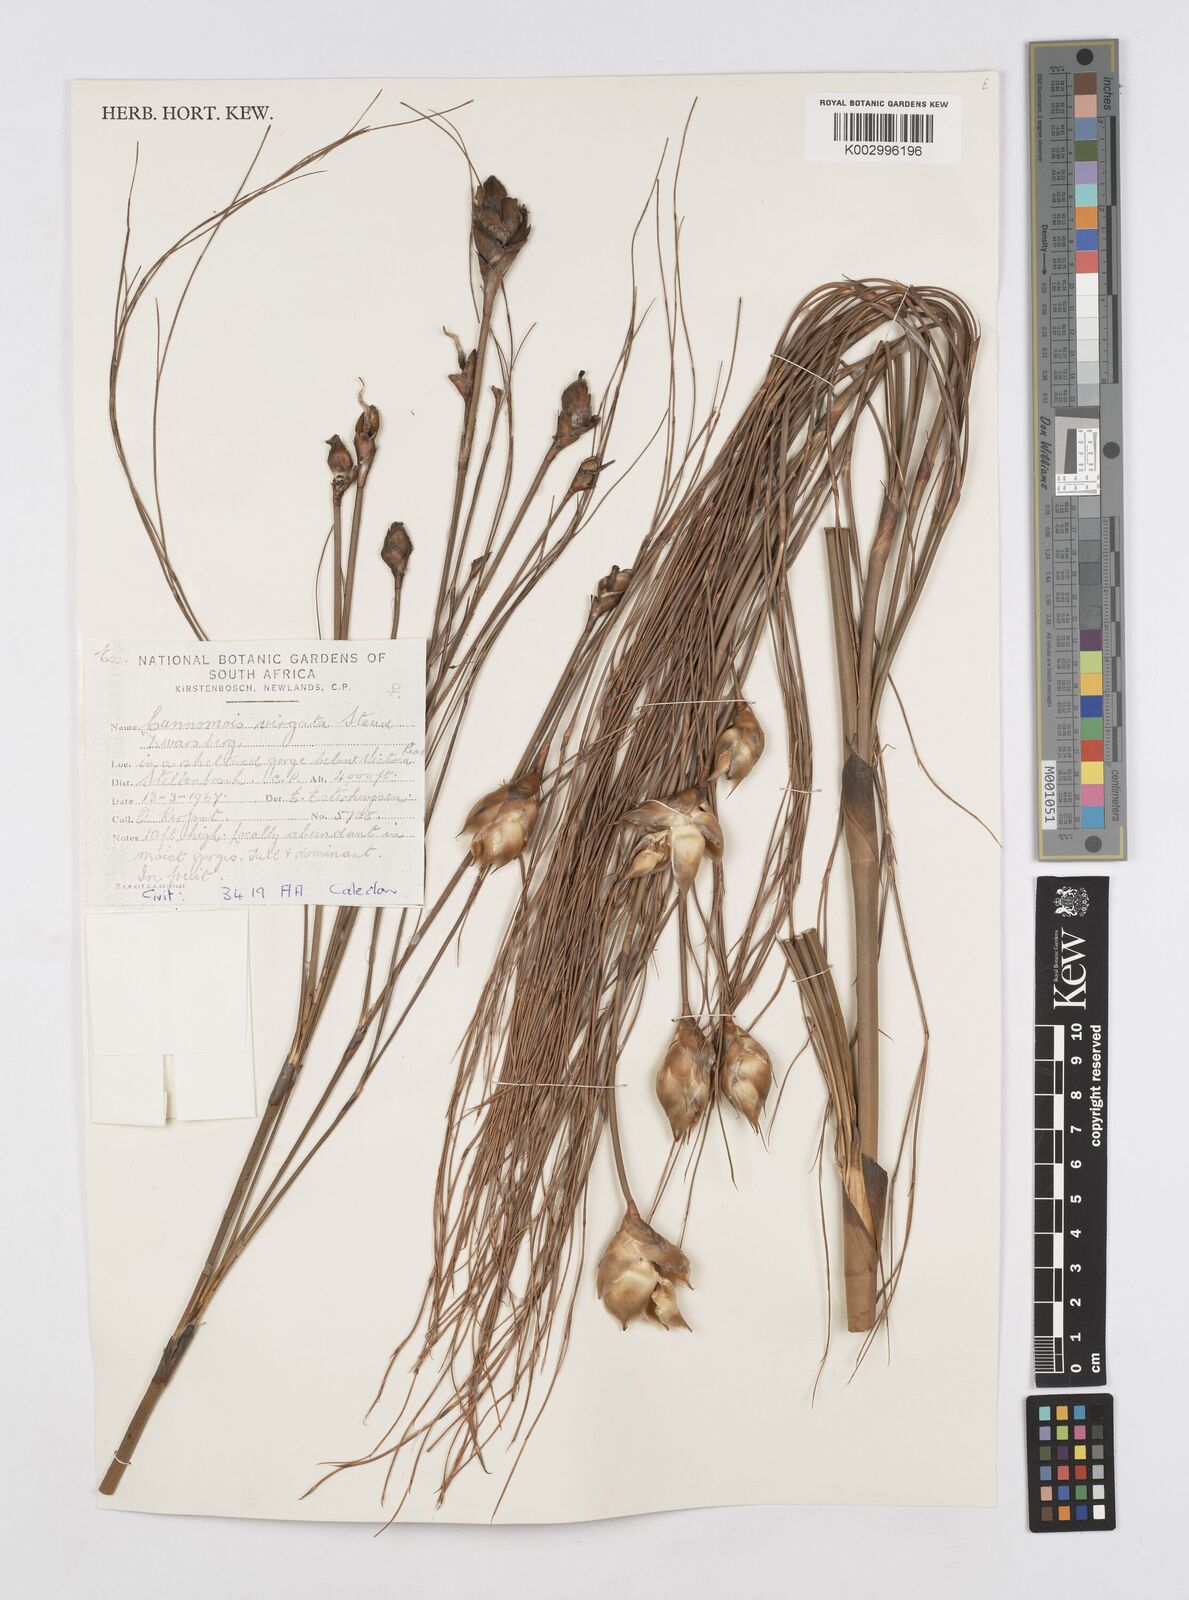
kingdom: Plantae
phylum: Tracheophyta
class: Liliopsida
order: Poales
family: Restionaceae
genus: Cannomois
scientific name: Cannomois virgata
